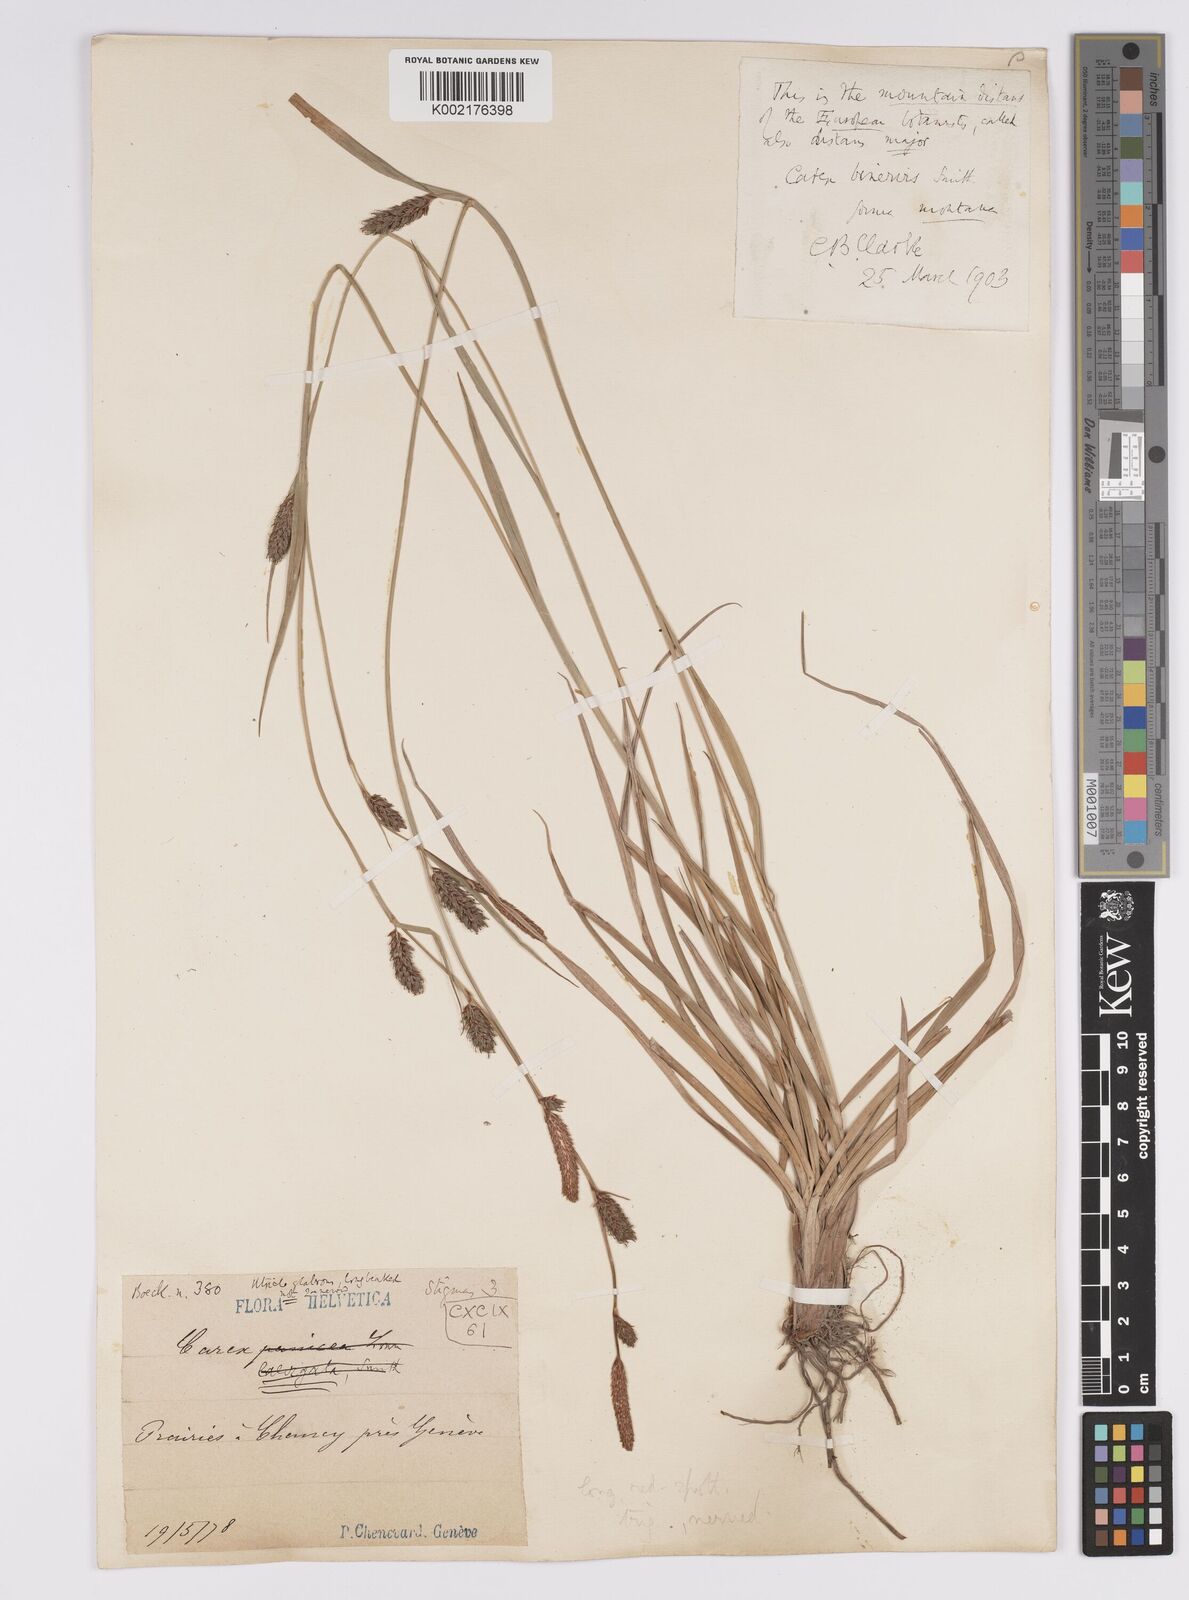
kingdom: Plantae
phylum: Tracheophyta
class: Liliopsida
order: Poales
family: Cyperaceae
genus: Carex
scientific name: Carex distans
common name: Distant sedge
